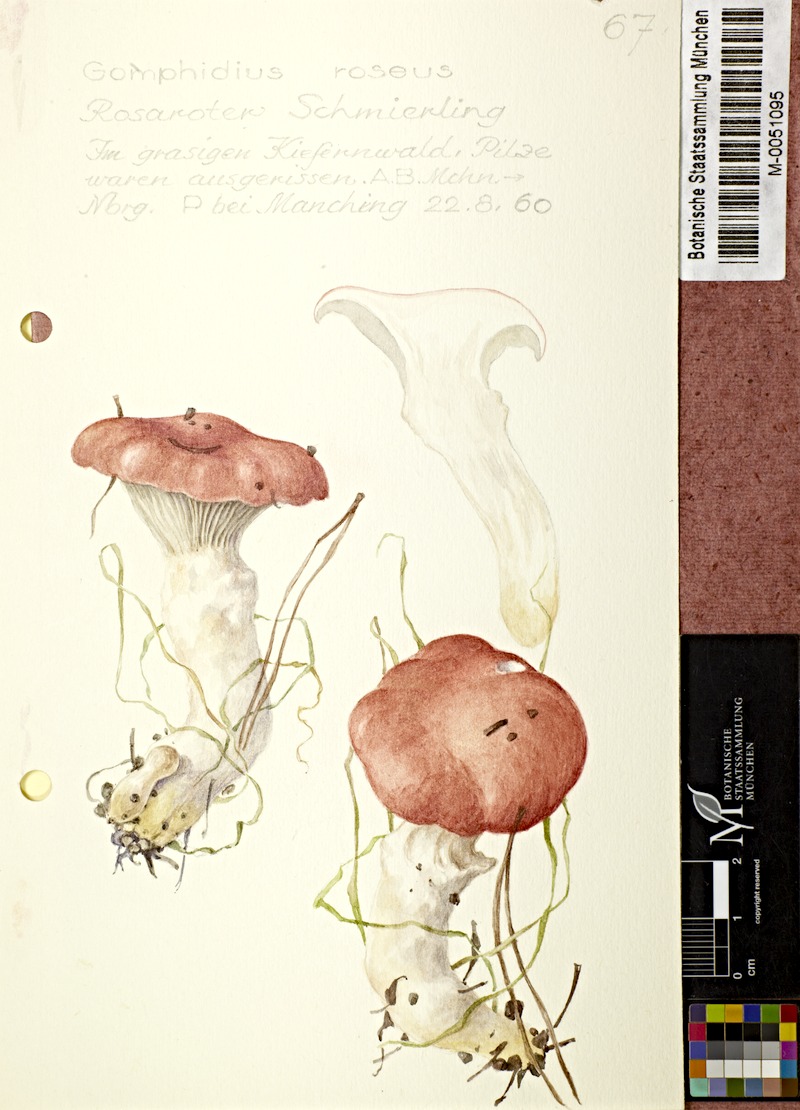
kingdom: Fungi
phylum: Basidiomycota
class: Agaricomycetes
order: Boletales
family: Gomphidiaceae
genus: Gomphidius
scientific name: Gomphidius roseus
